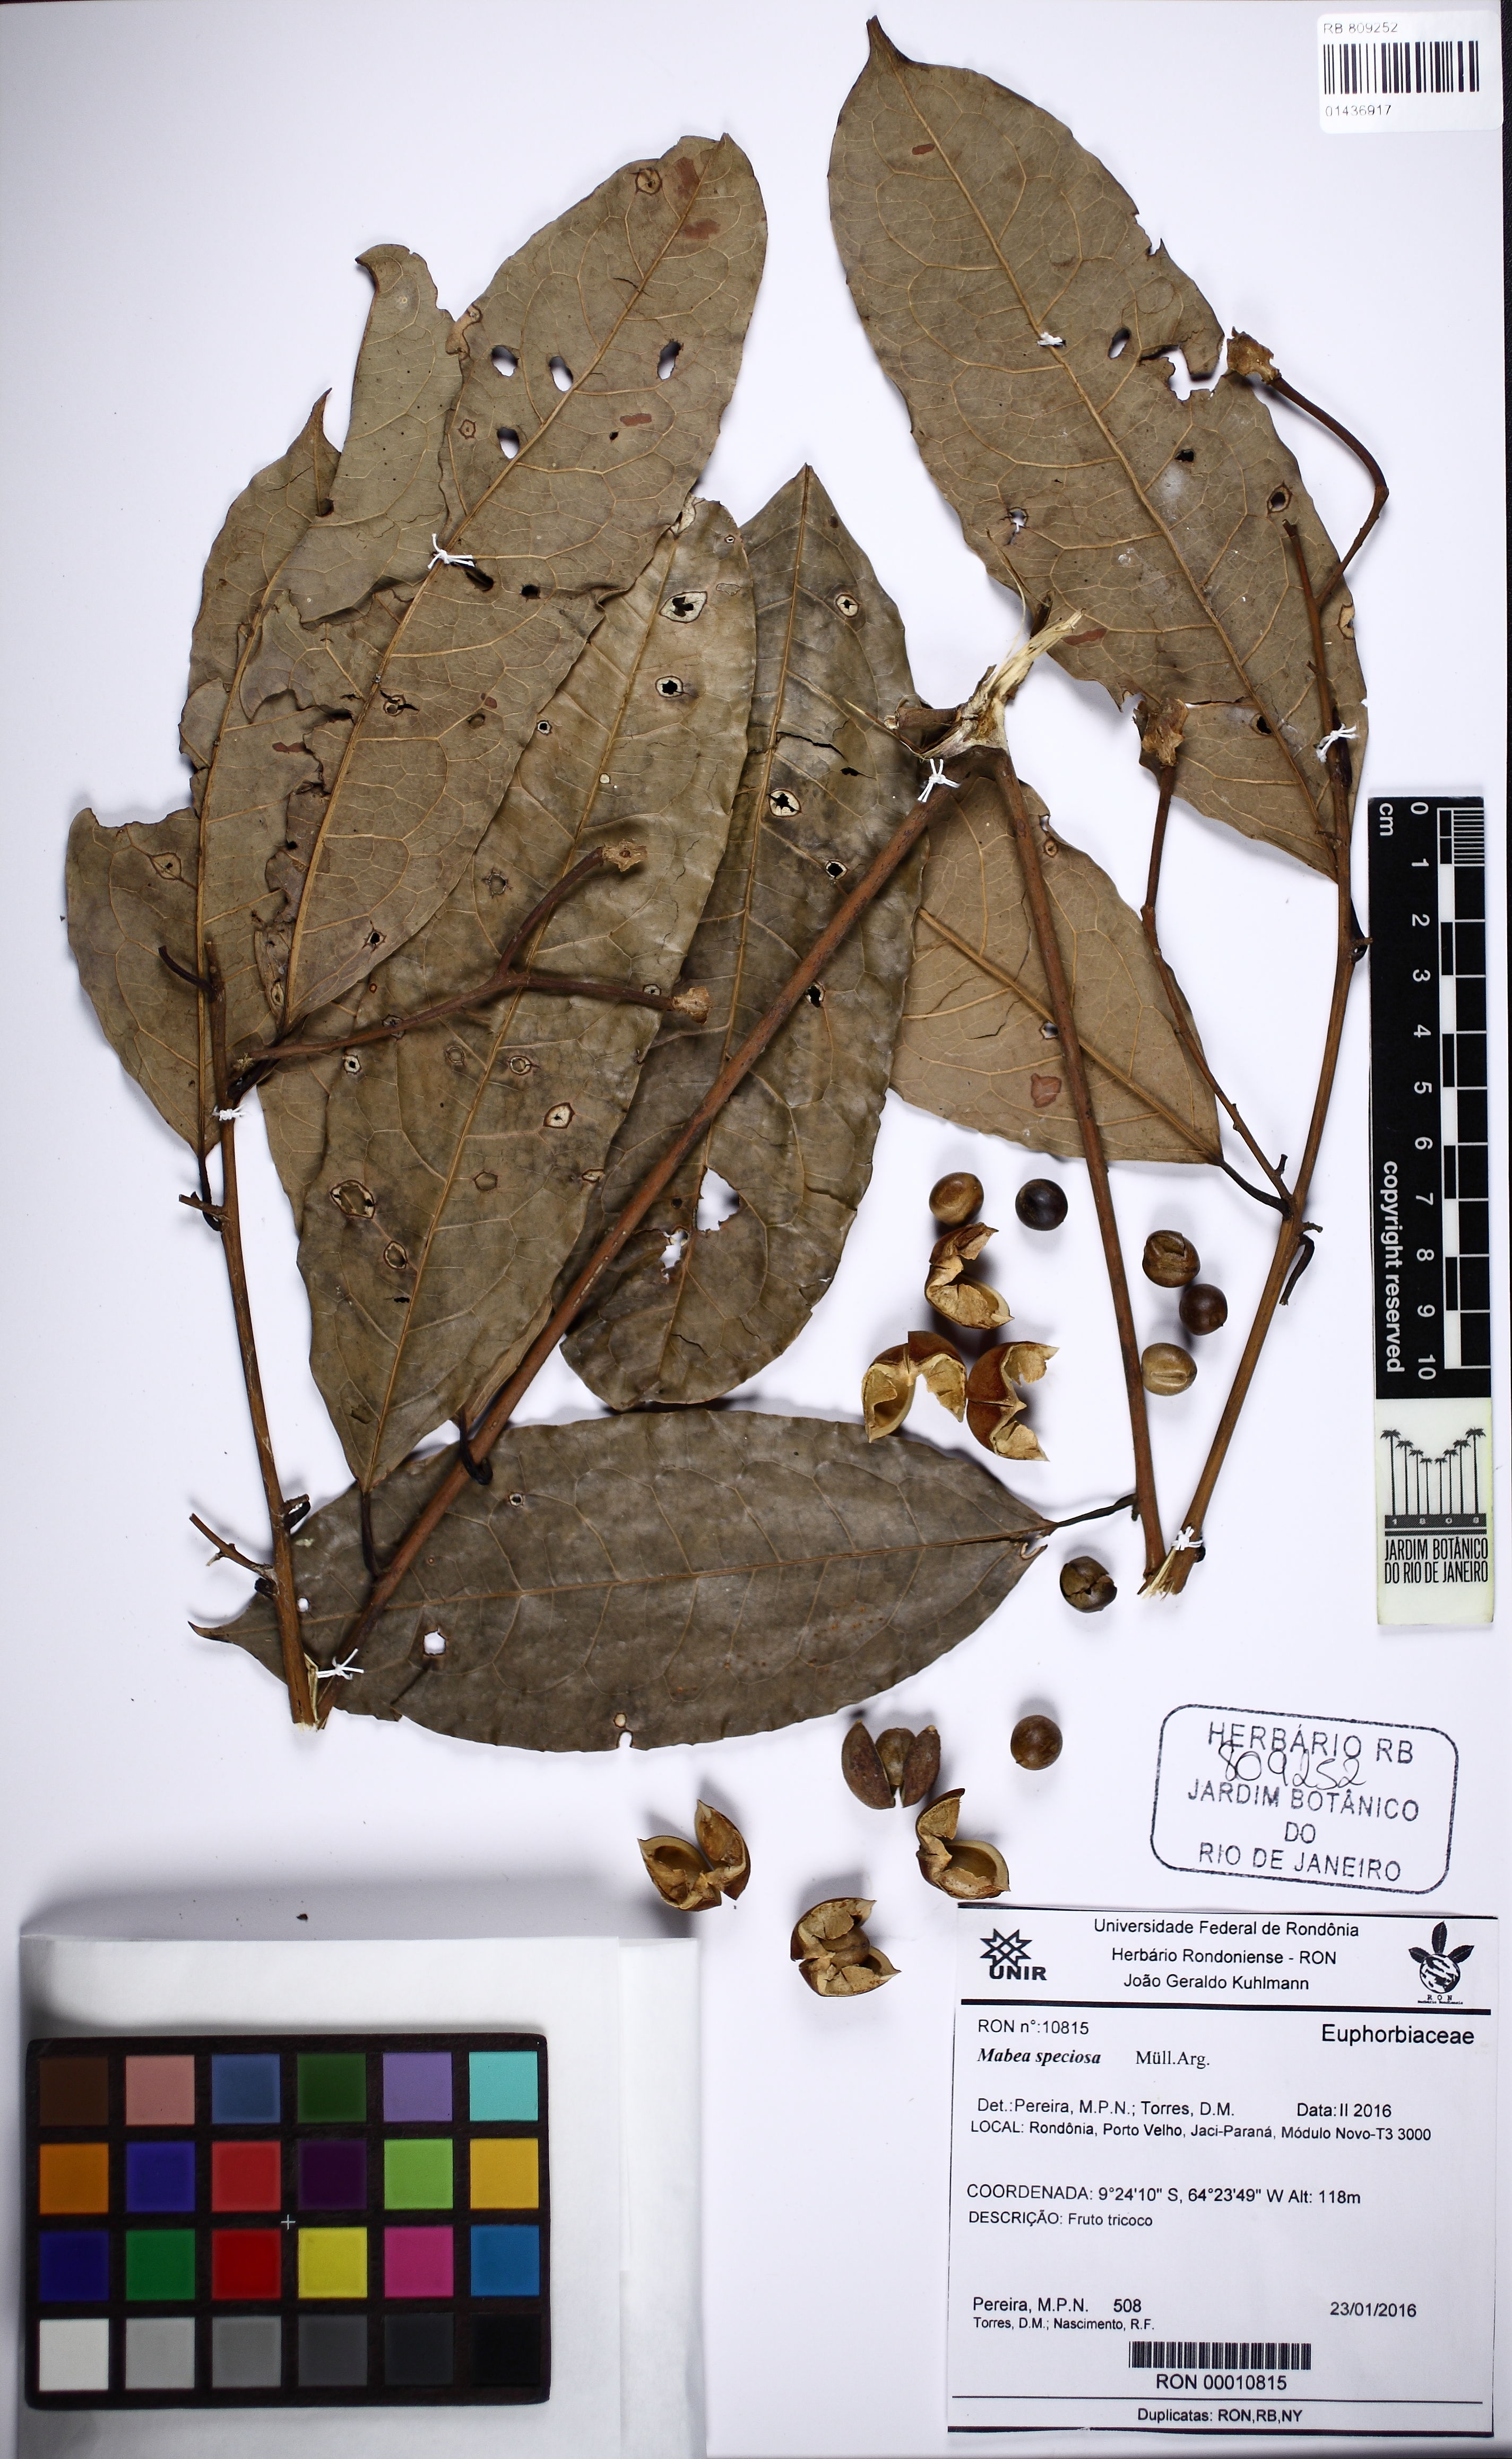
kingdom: Plantae
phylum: Tracheophyta
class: Magnoliopsida
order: Malpighiales
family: Euphorbiaceae
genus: Mabea
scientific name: Mabea speciosa
